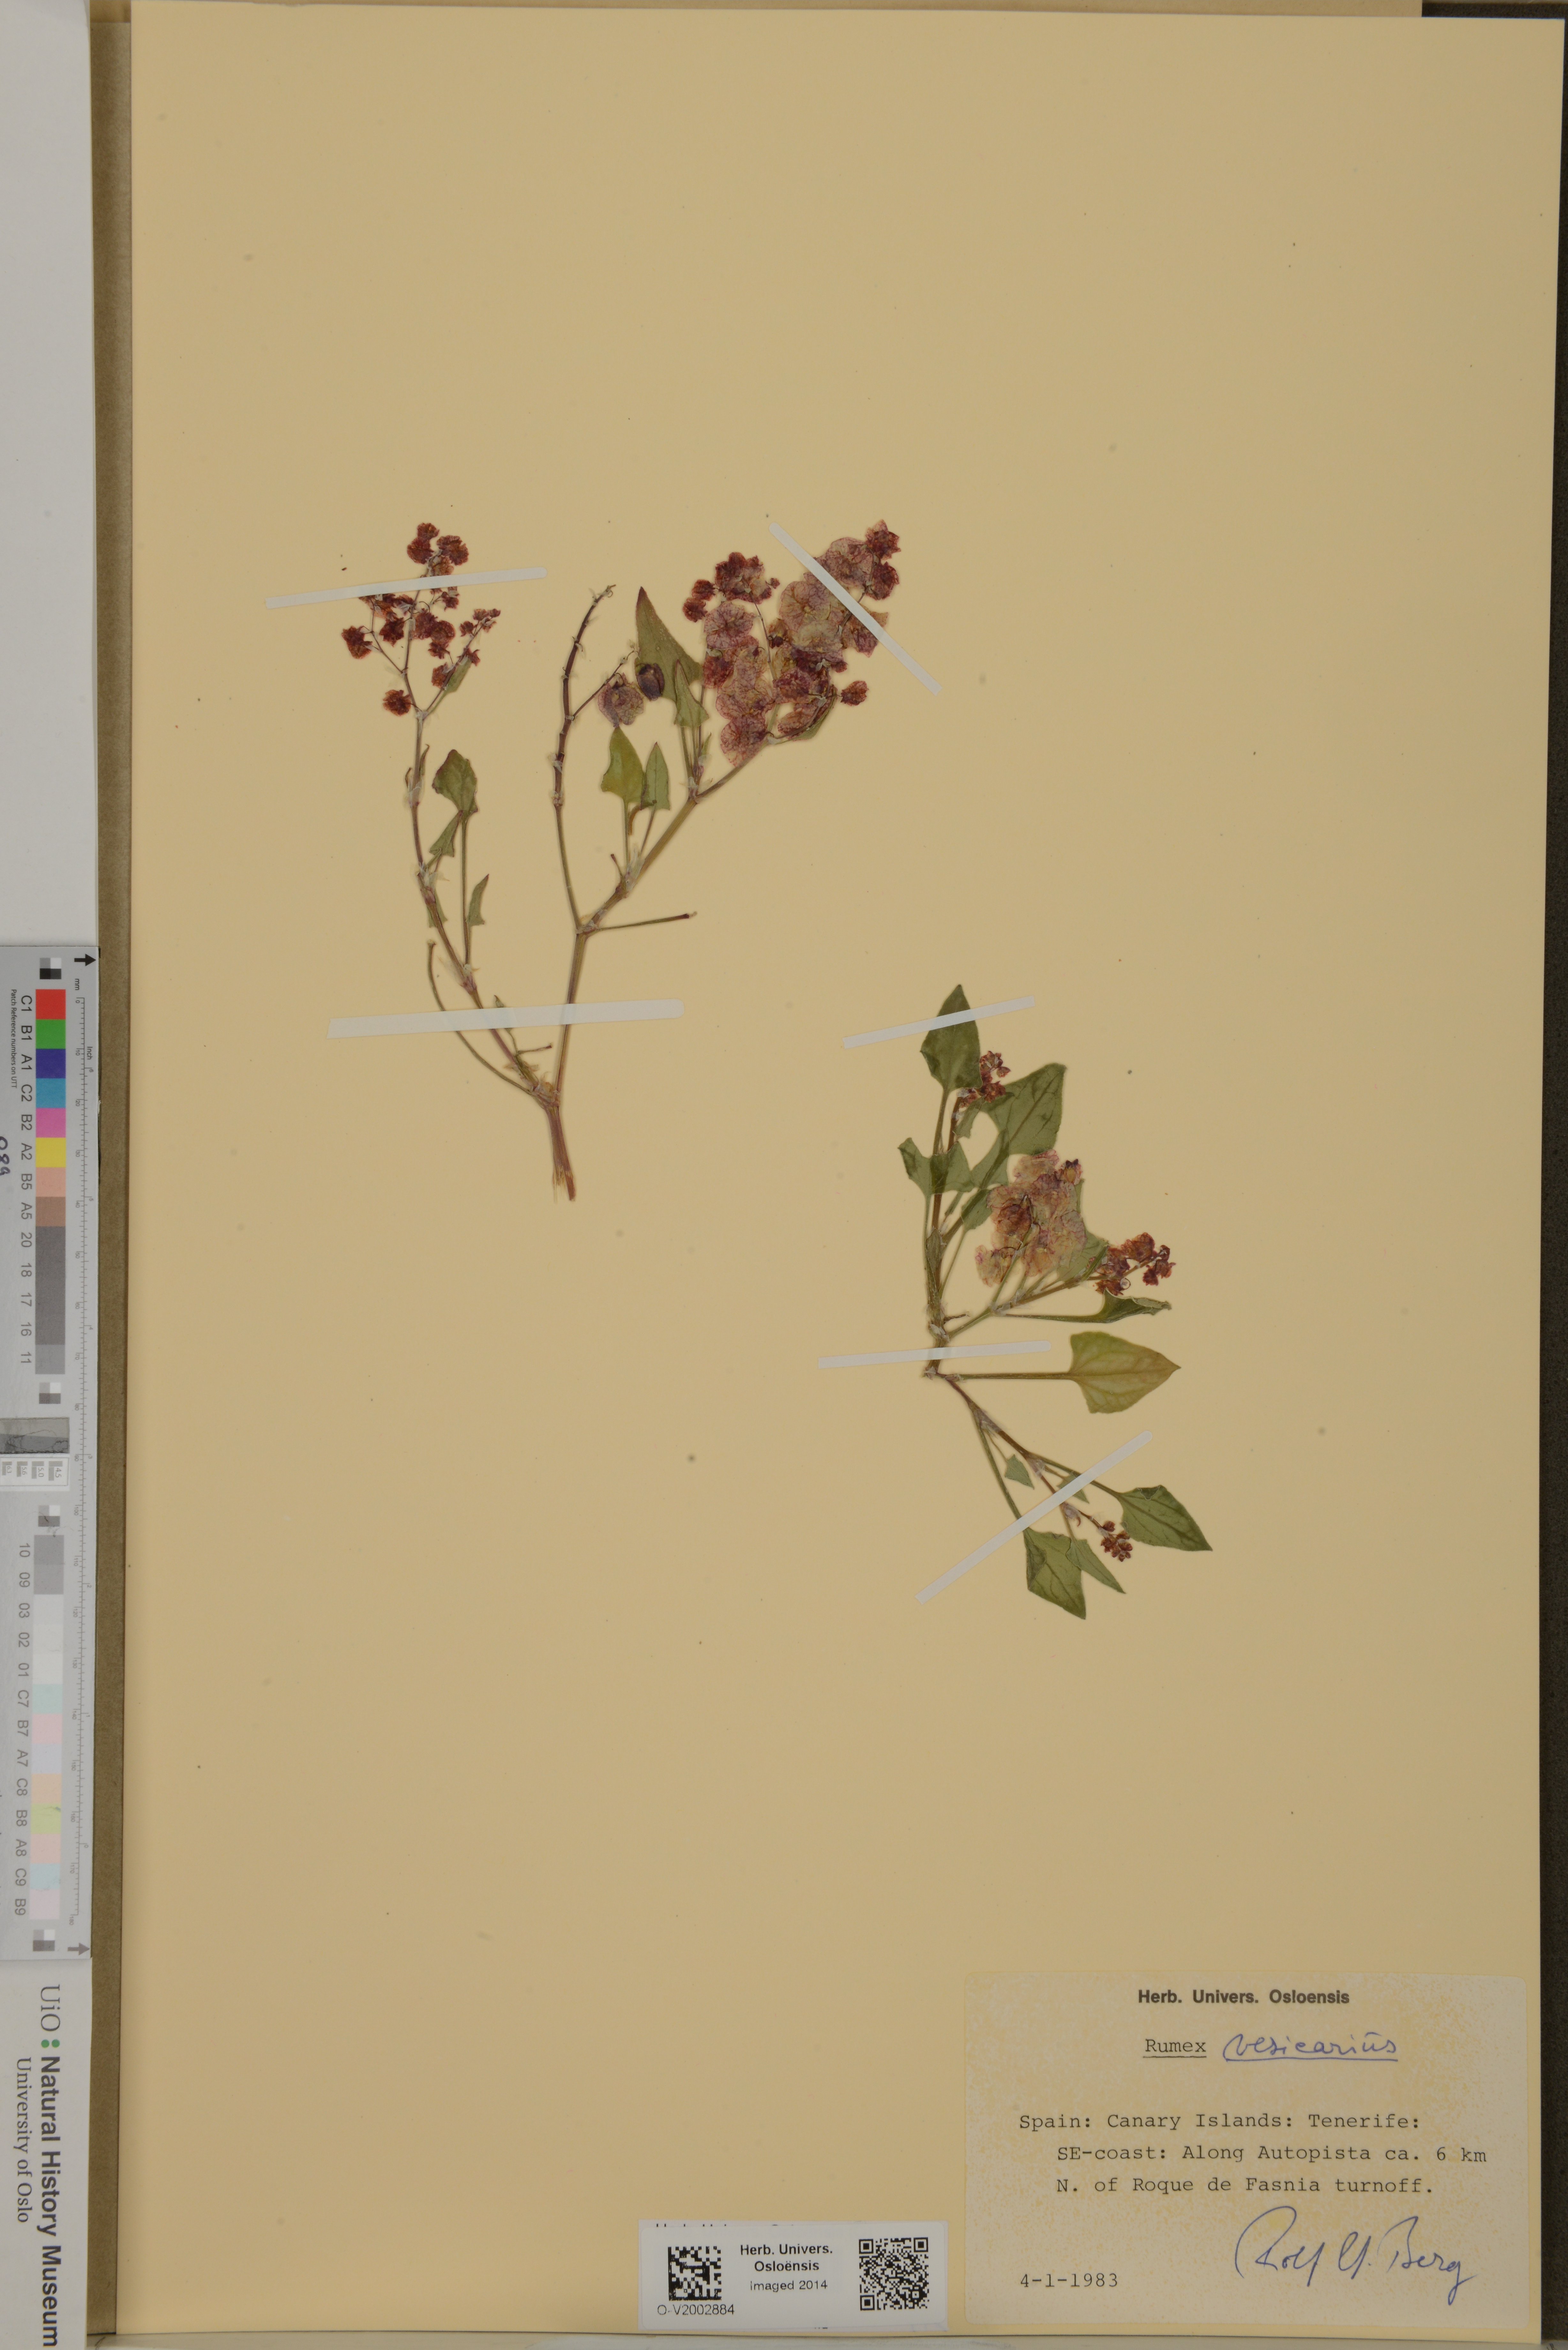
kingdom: Plantae
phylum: Tracheophyta
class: Magnoliopsida
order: Caryophyllales
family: Polygonaceae
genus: Rumex
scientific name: Rumex vesicarius
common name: Bladder dock
